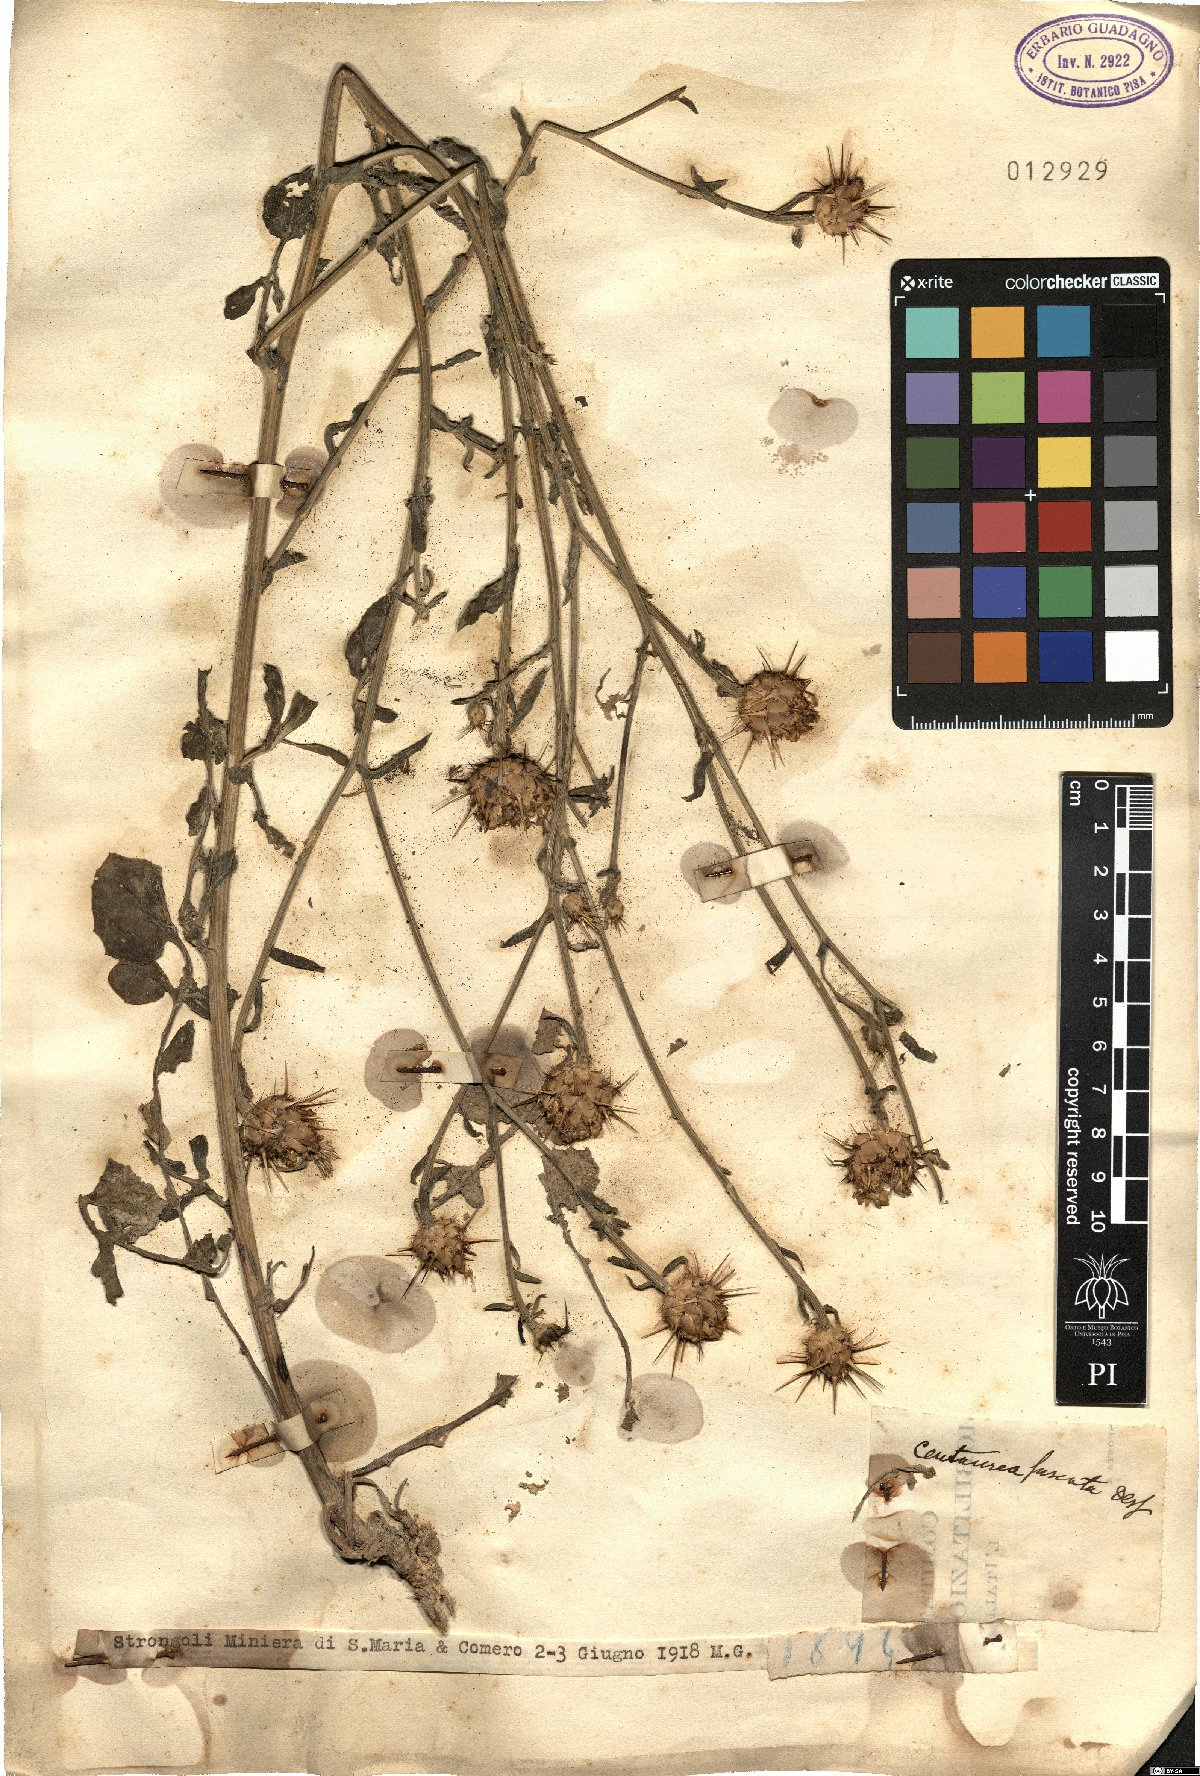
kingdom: Plantae
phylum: Tracheophyta
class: Magnoliopsida
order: Asterales
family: Asteraceae
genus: Centaurea
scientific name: Centaurea sicula
